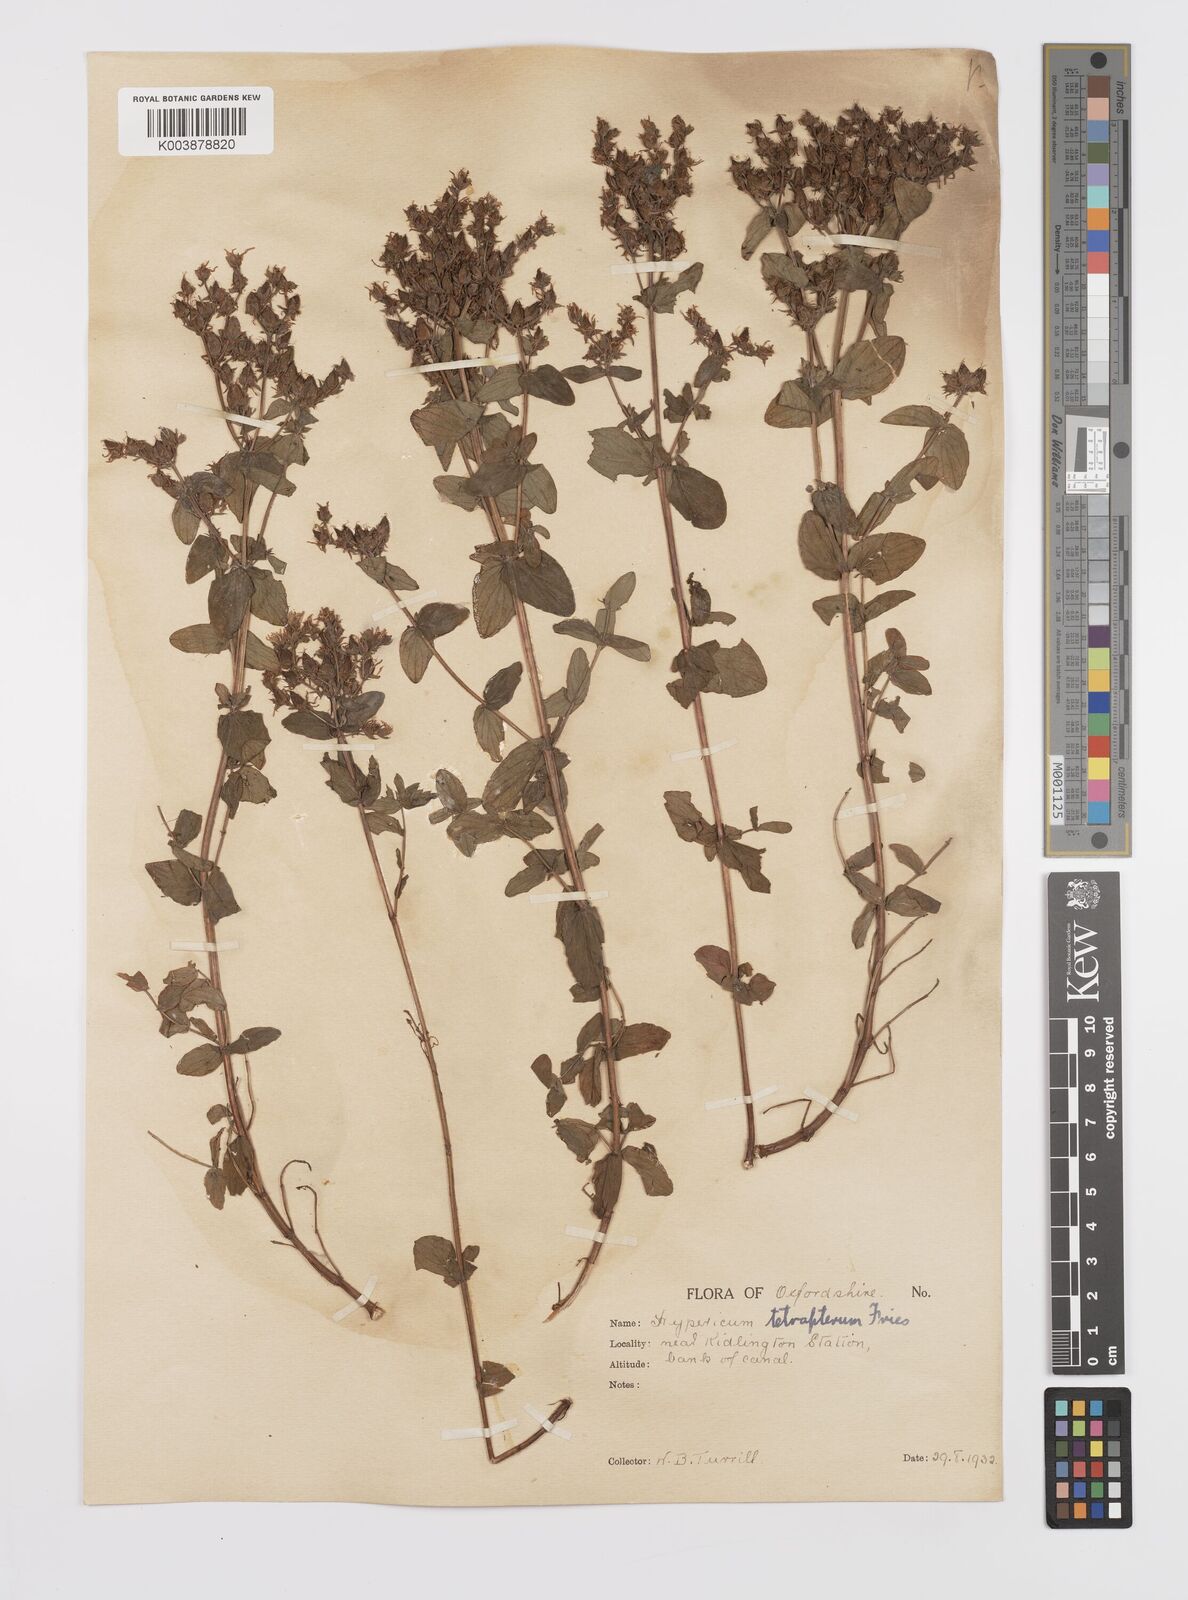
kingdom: Plantae
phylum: Tracheophyta
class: Magnoliopsida
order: Malpighiales
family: Hypericaceae
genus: Hypericum
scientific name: Hypericum tetrapterum
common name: Square-stalked st. john's-wort
